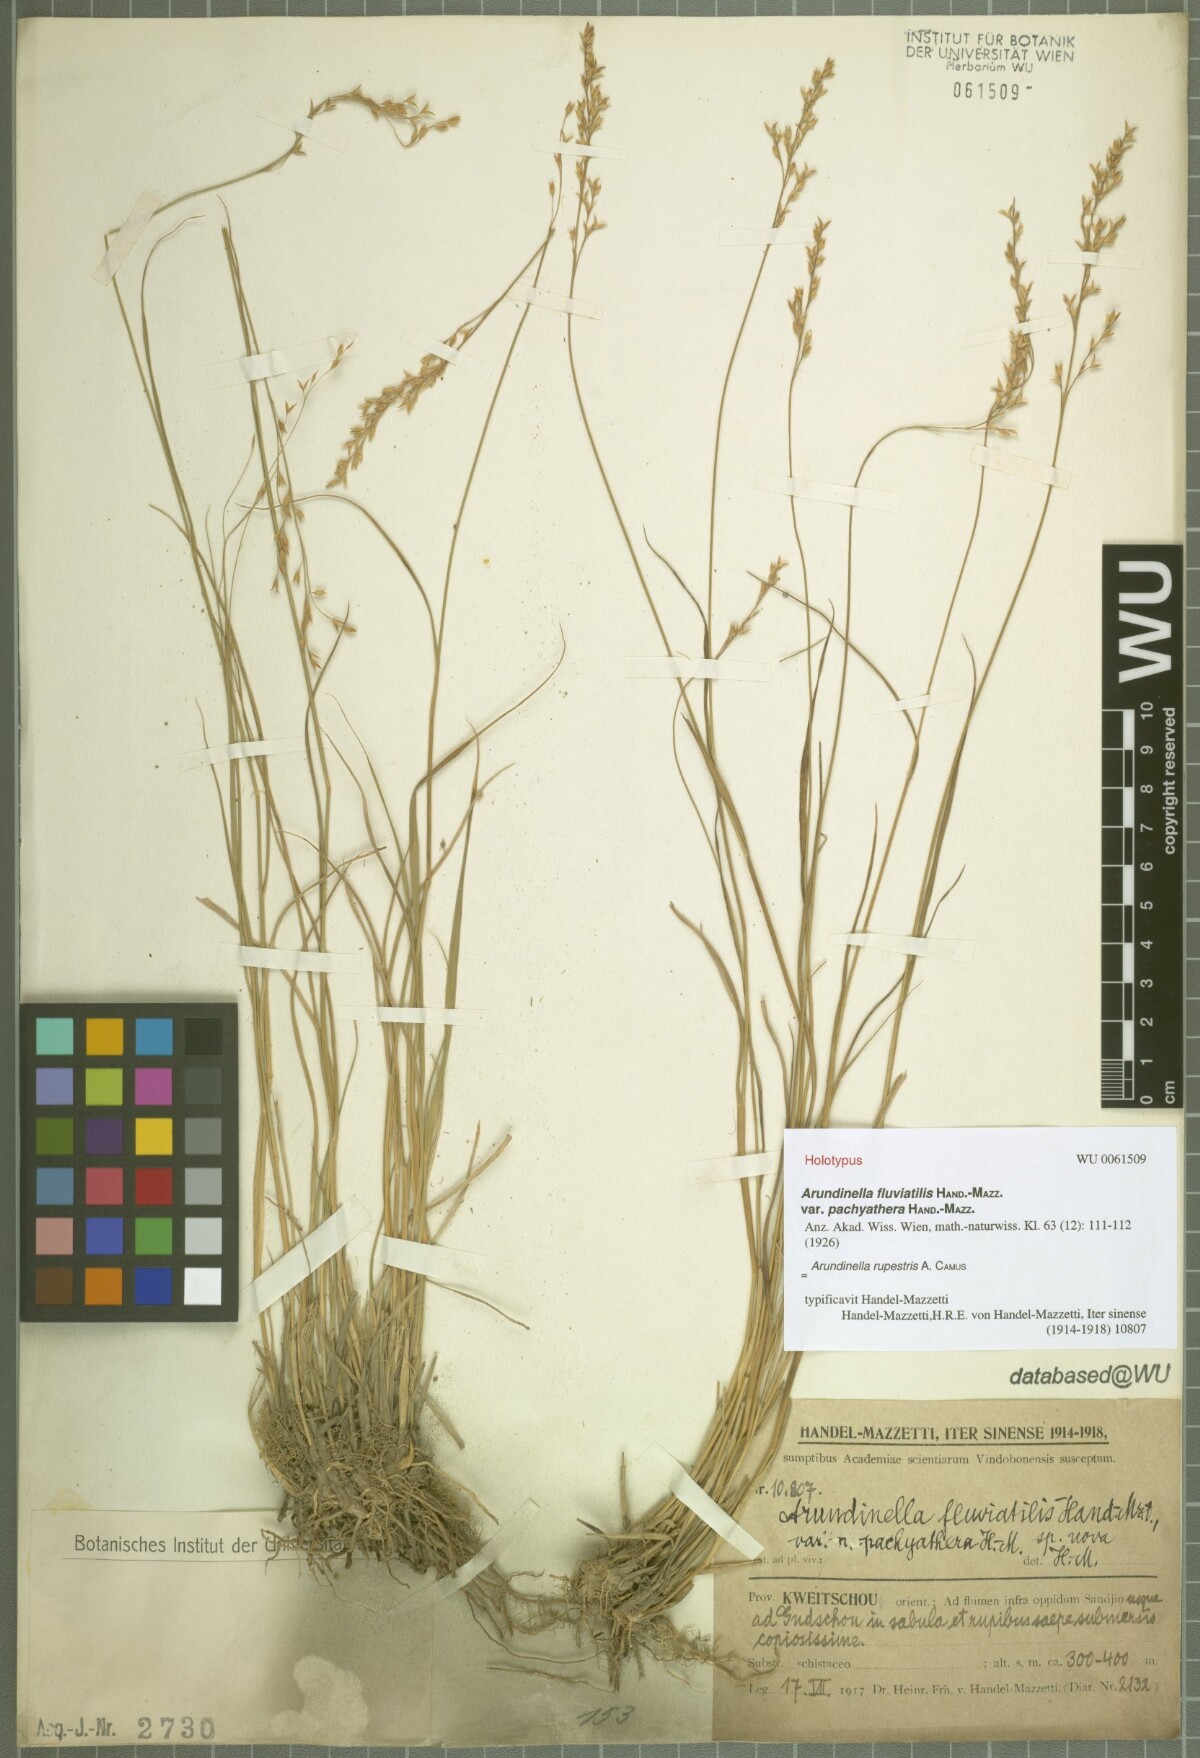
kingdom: Plantae
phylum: Tracheophyta
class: Liliopsida
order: Poales
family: Poaceae
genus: Arundinella
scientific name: Arundinella rupestris
